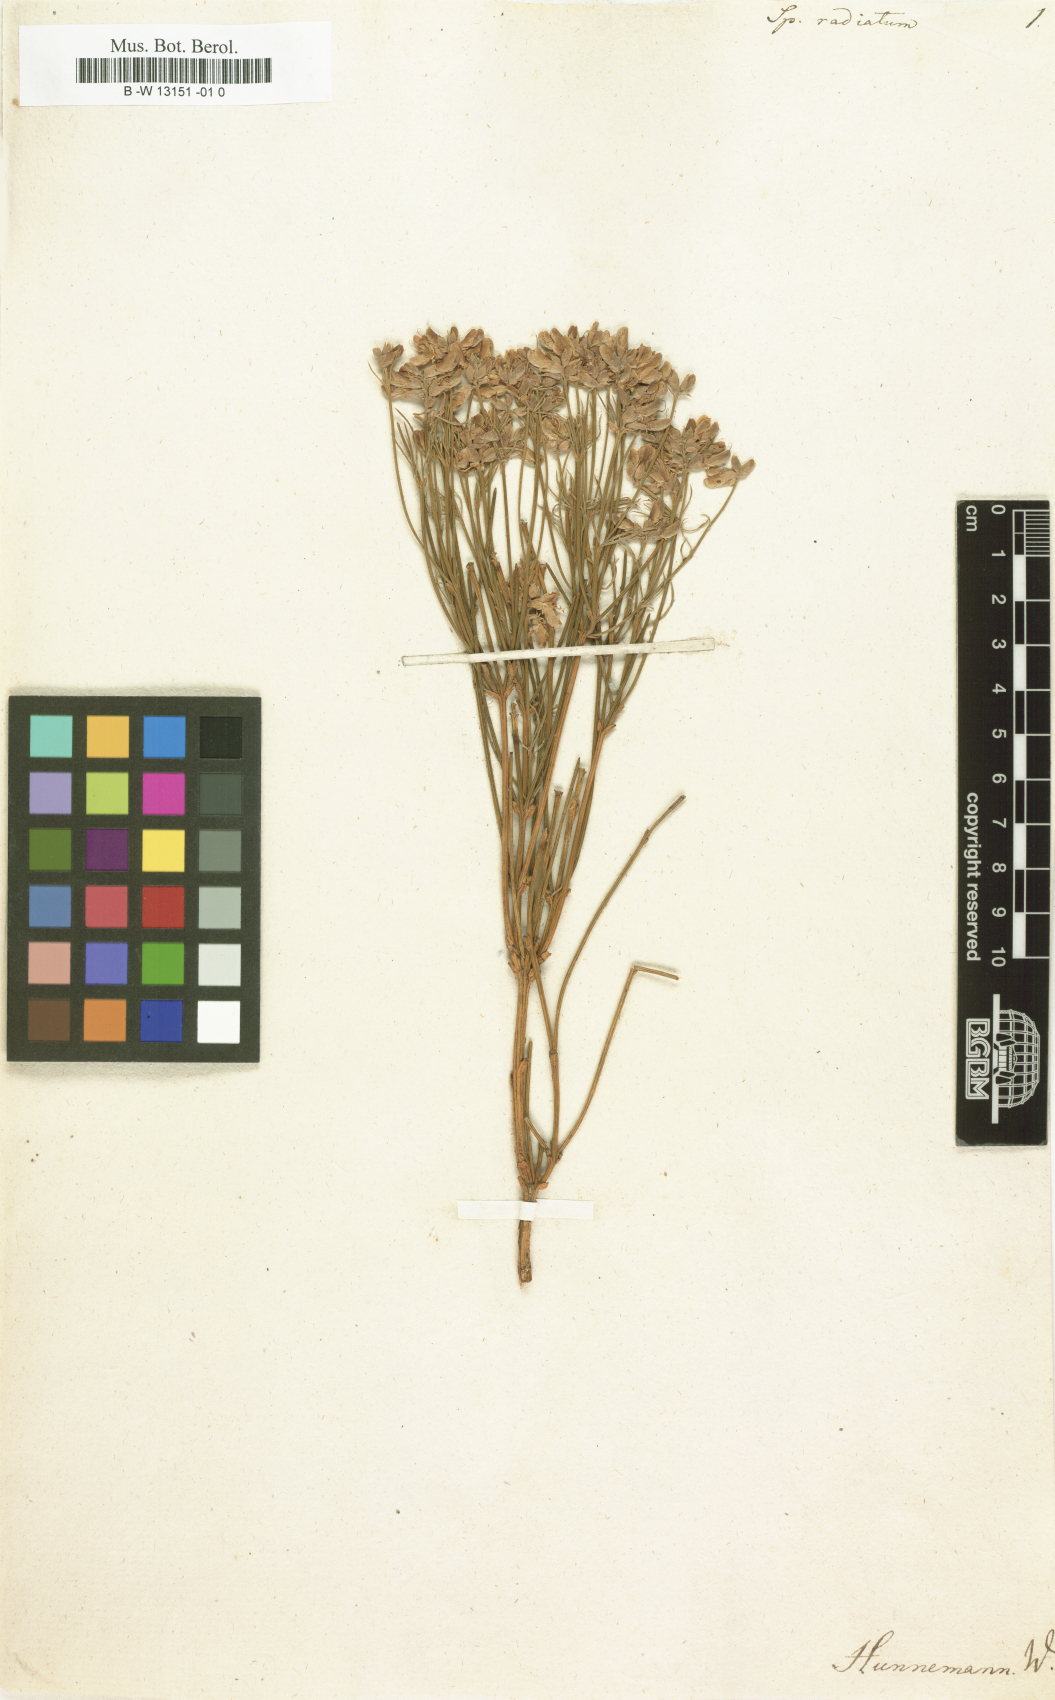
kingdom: Plantae
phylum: Tracheophyta
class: Magnoliopsida
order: Fabales
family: Fabaceae
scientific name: Fabaceae
